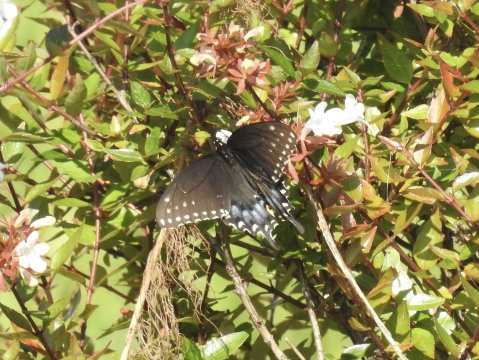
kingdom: Animalia
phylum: Arthropoda
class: Insecta
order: Lepidoptera
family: Papilionidae
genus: Papilio
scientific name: Papilio polyxenes
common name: Black Swallowtail
